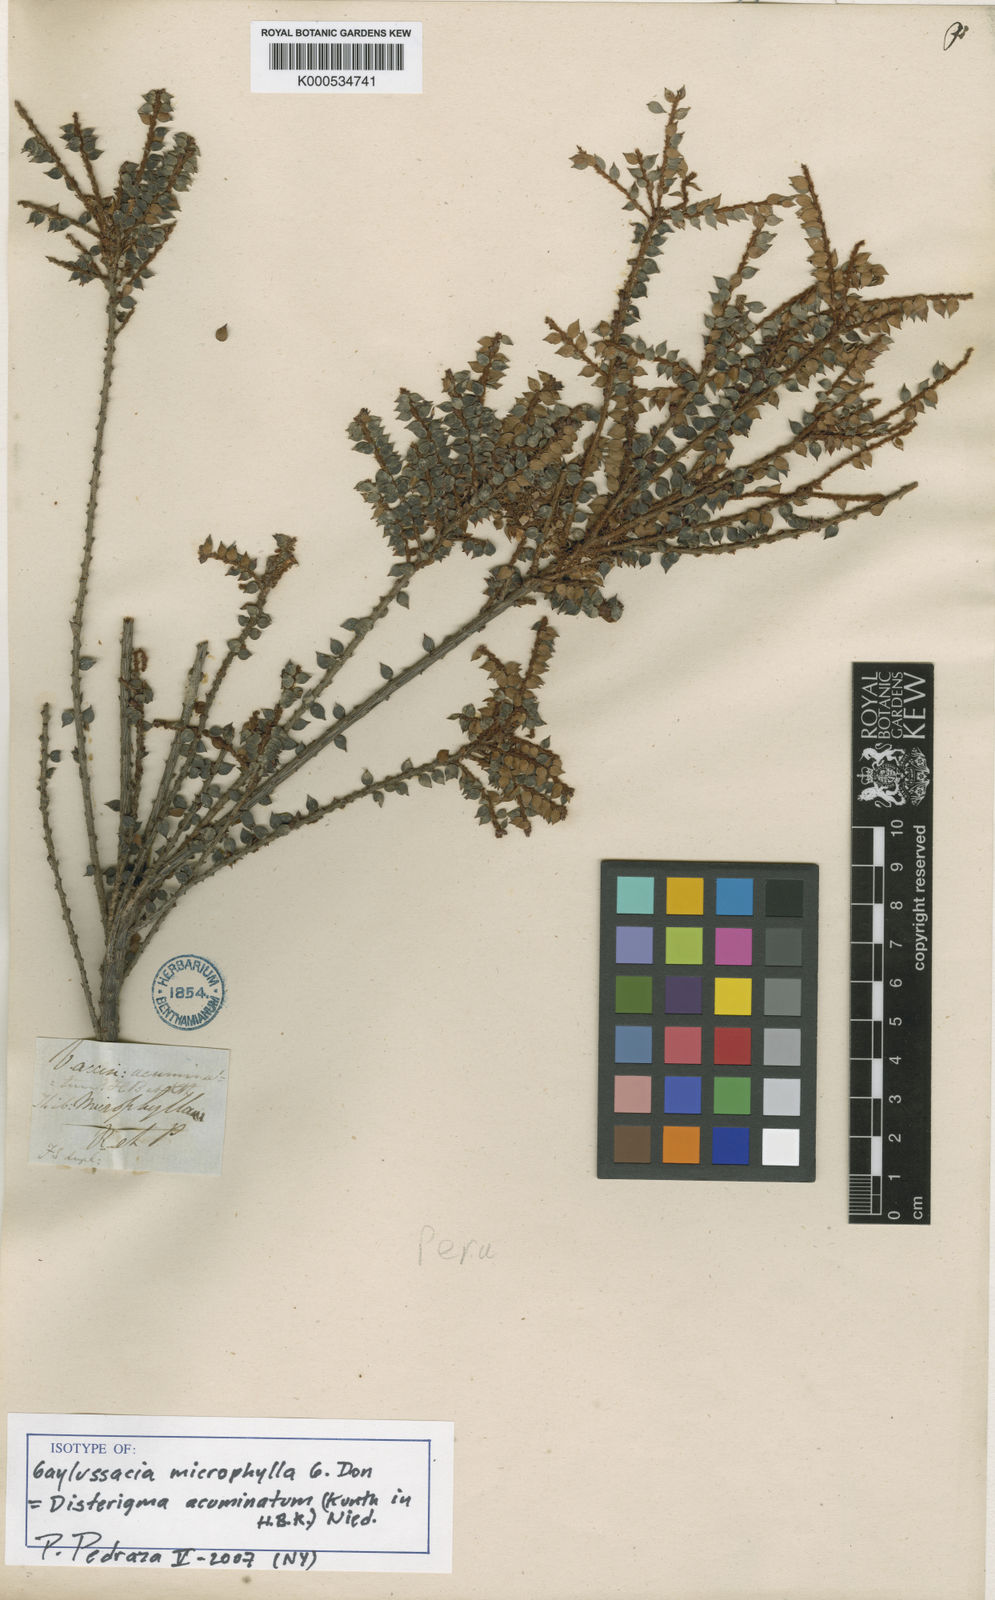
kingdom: Plantae
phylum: Tracheophyta
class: Magnoliopsida
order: Ericales
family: Ericaceae
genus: Disterigma
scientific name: Disterigma acuminatum
